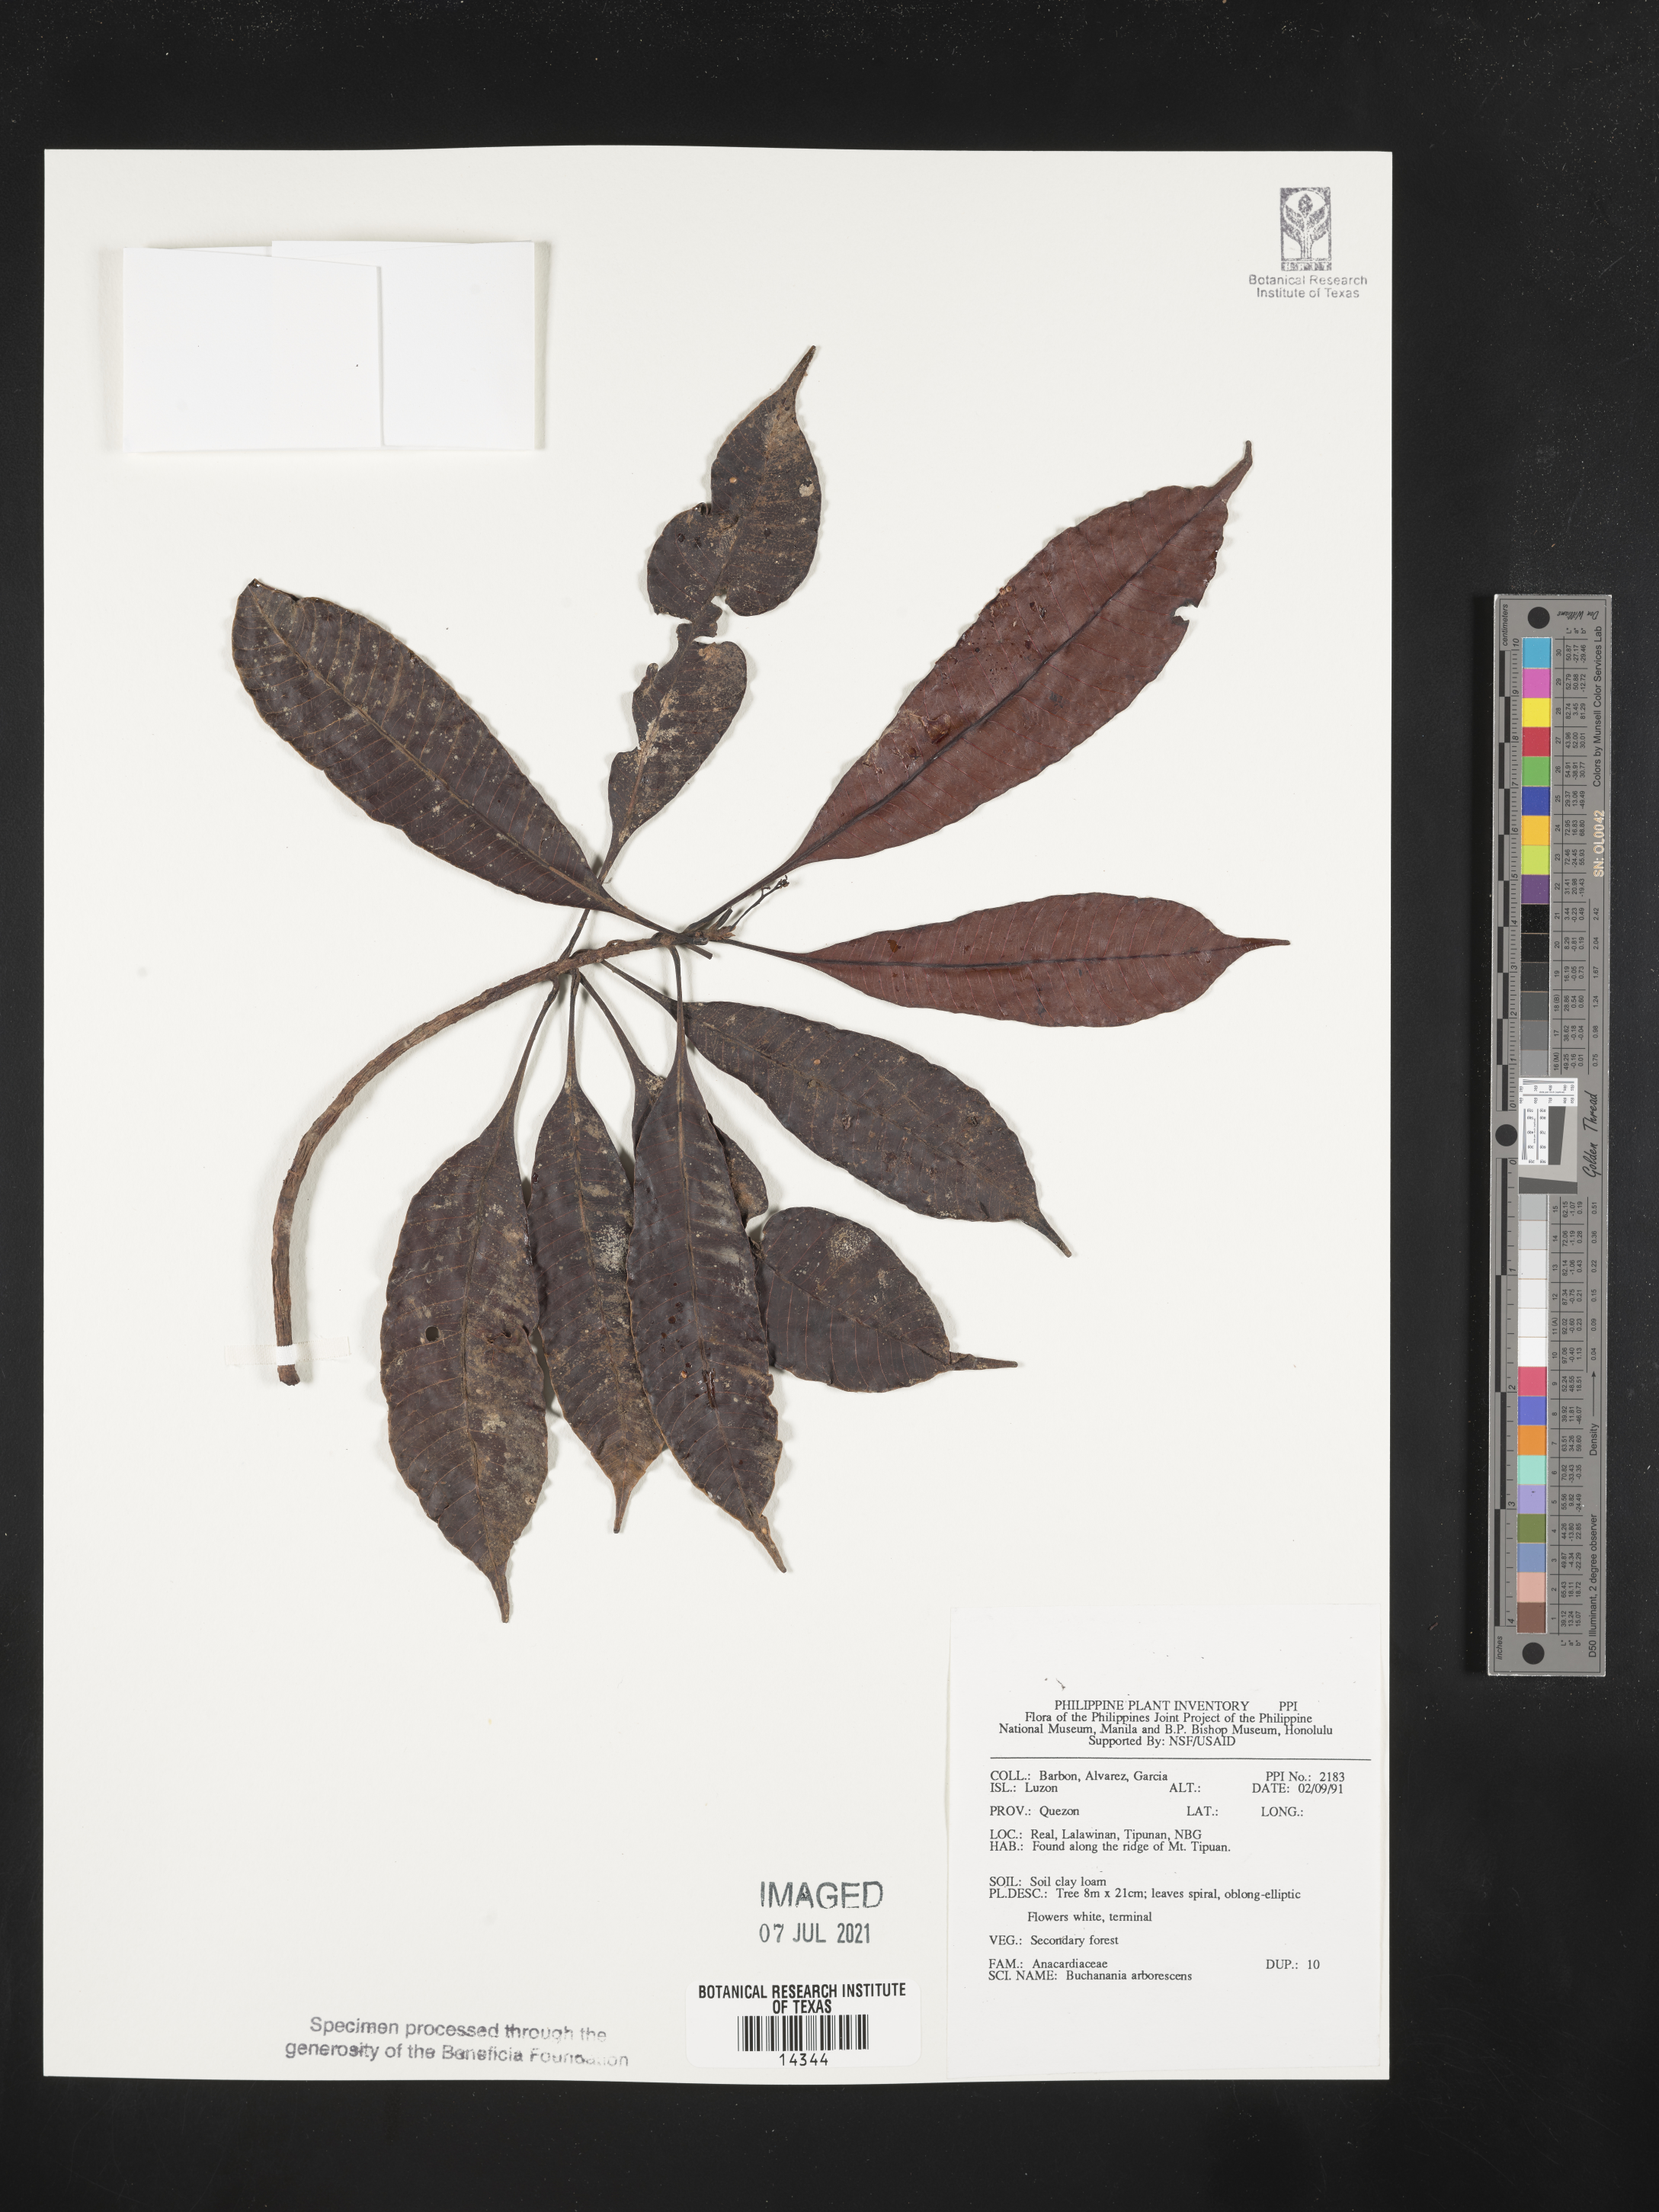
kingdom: Plantae
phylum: Tracheophyta
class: Magnoliopsida
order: Sapindales
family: Anacardiaceae
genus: Buchanania
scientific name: Buchanania arborescens
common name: Sparrow’s mango
